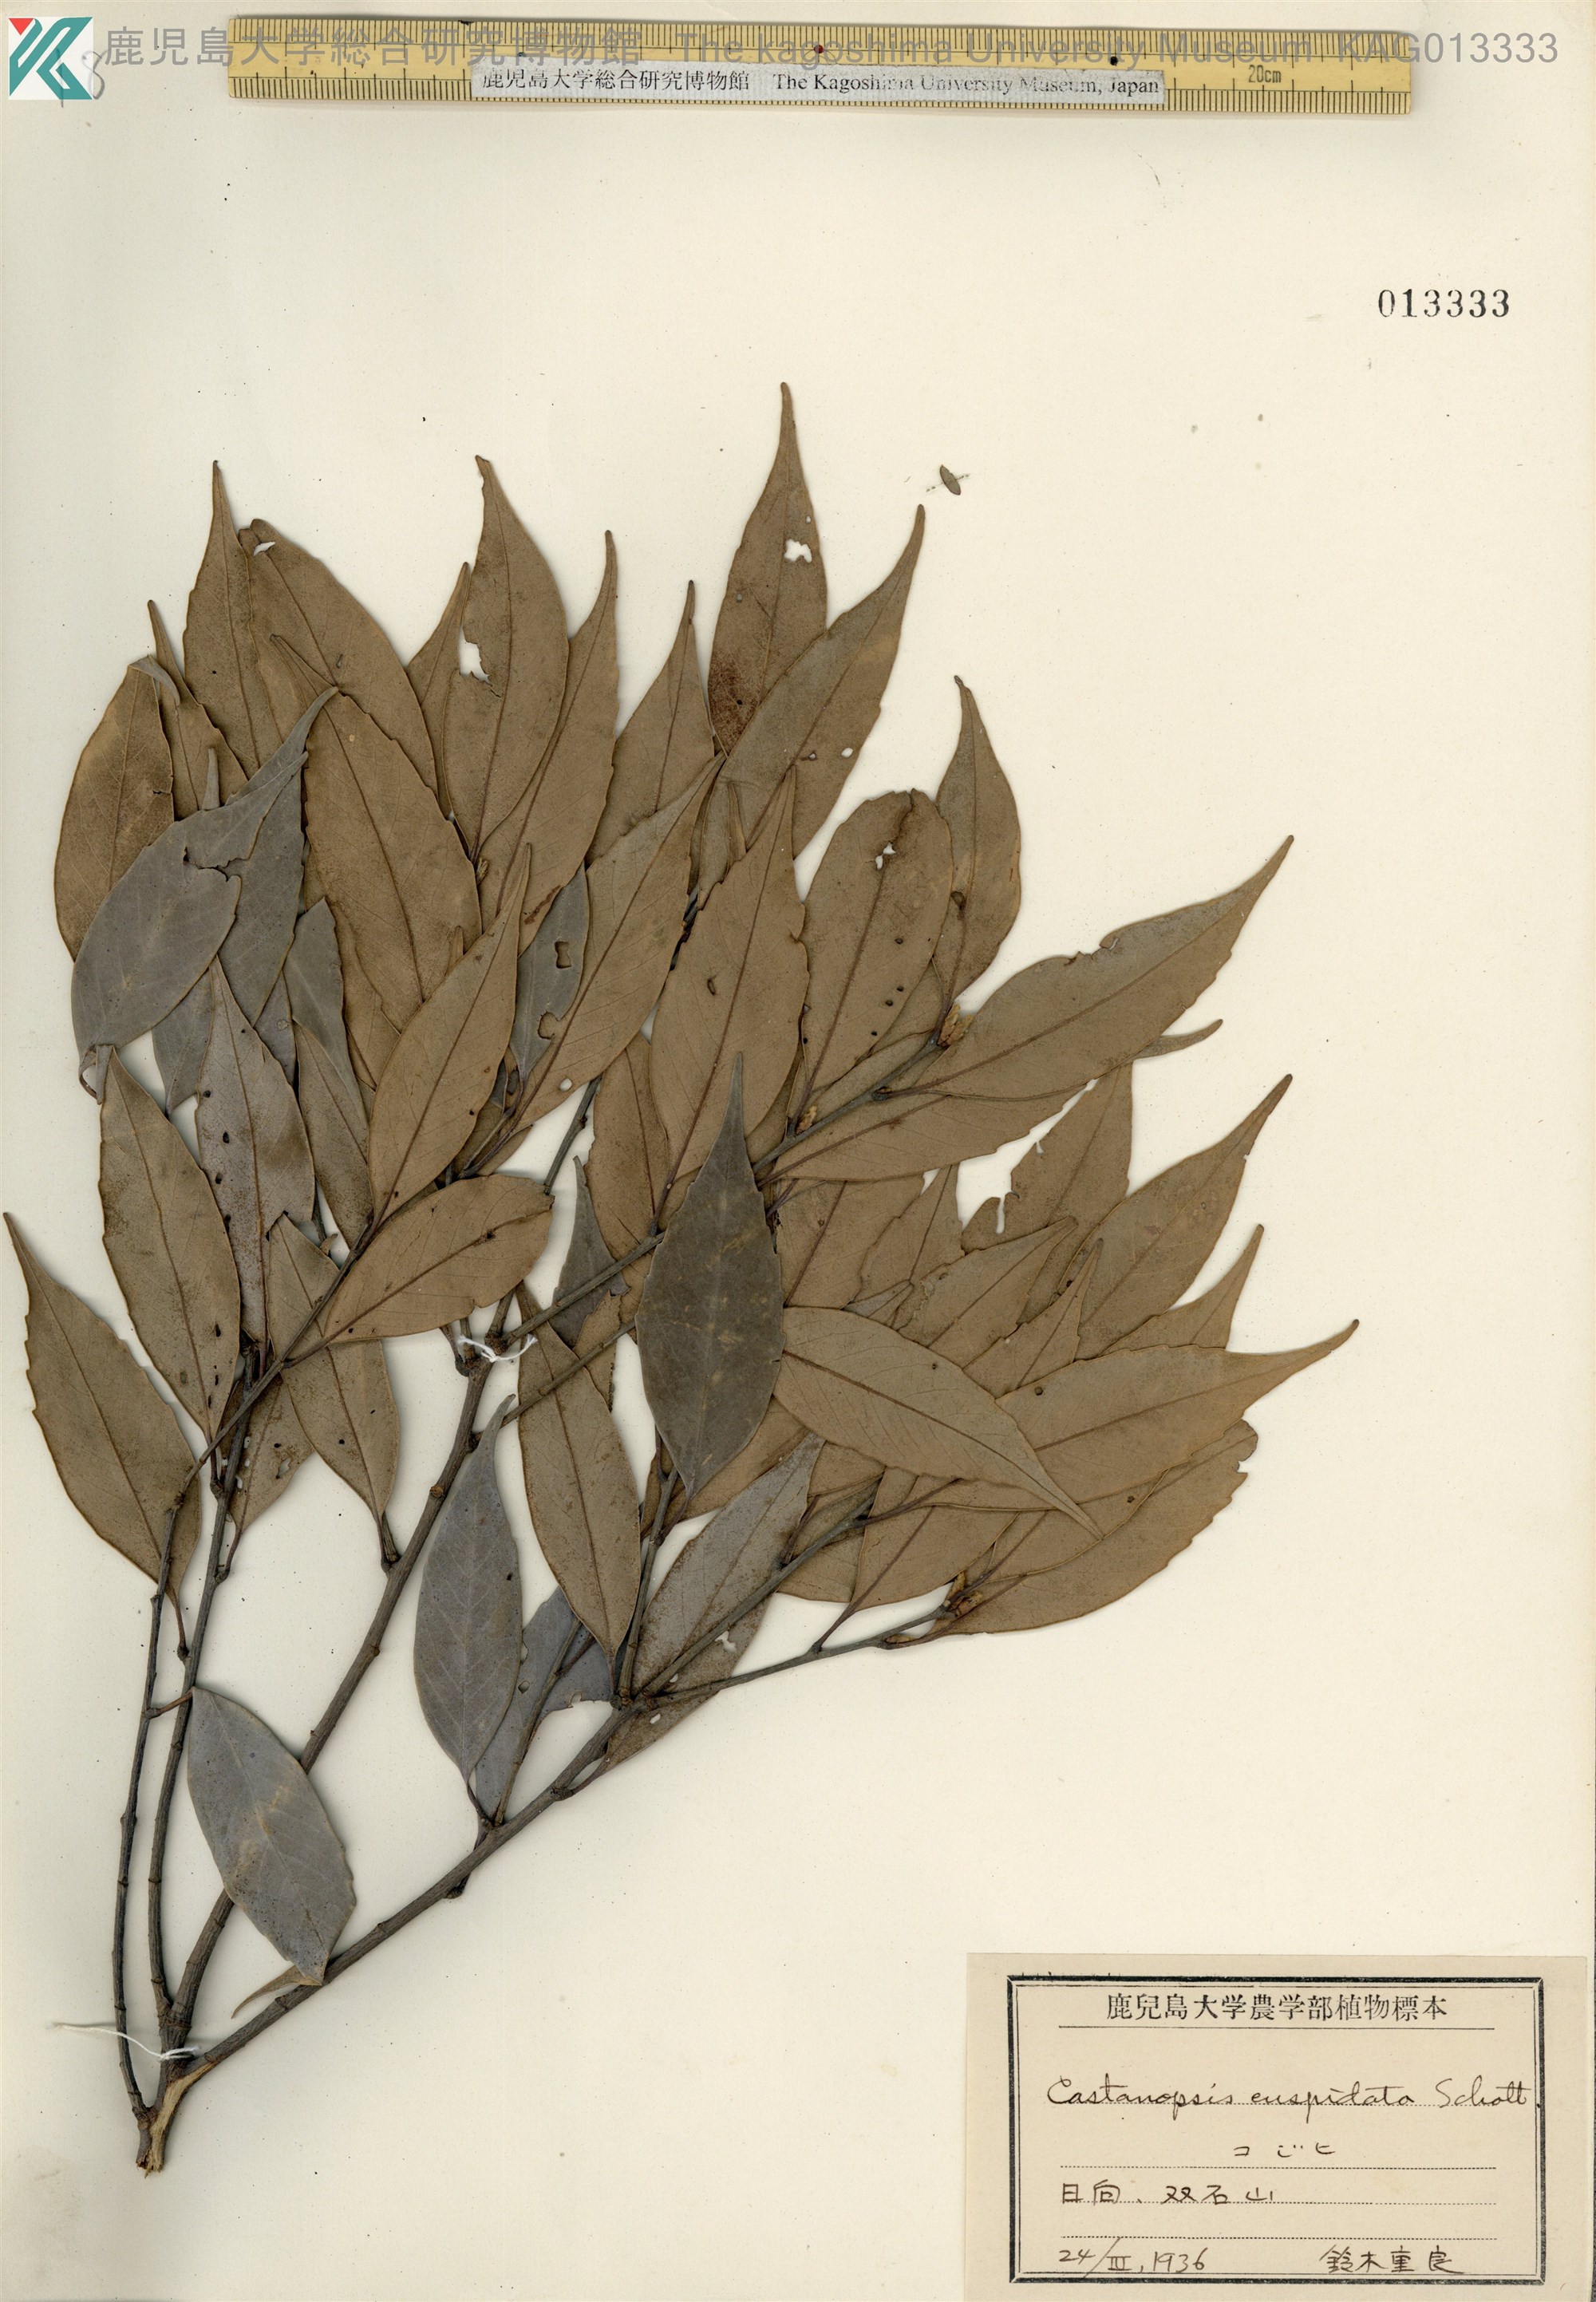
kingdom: Plantae
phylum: Tracheophyta
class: Magnoliopsida
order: Fagales
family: Fagaceae
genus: Castanopsis
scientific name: Castanopsis cuspidata
